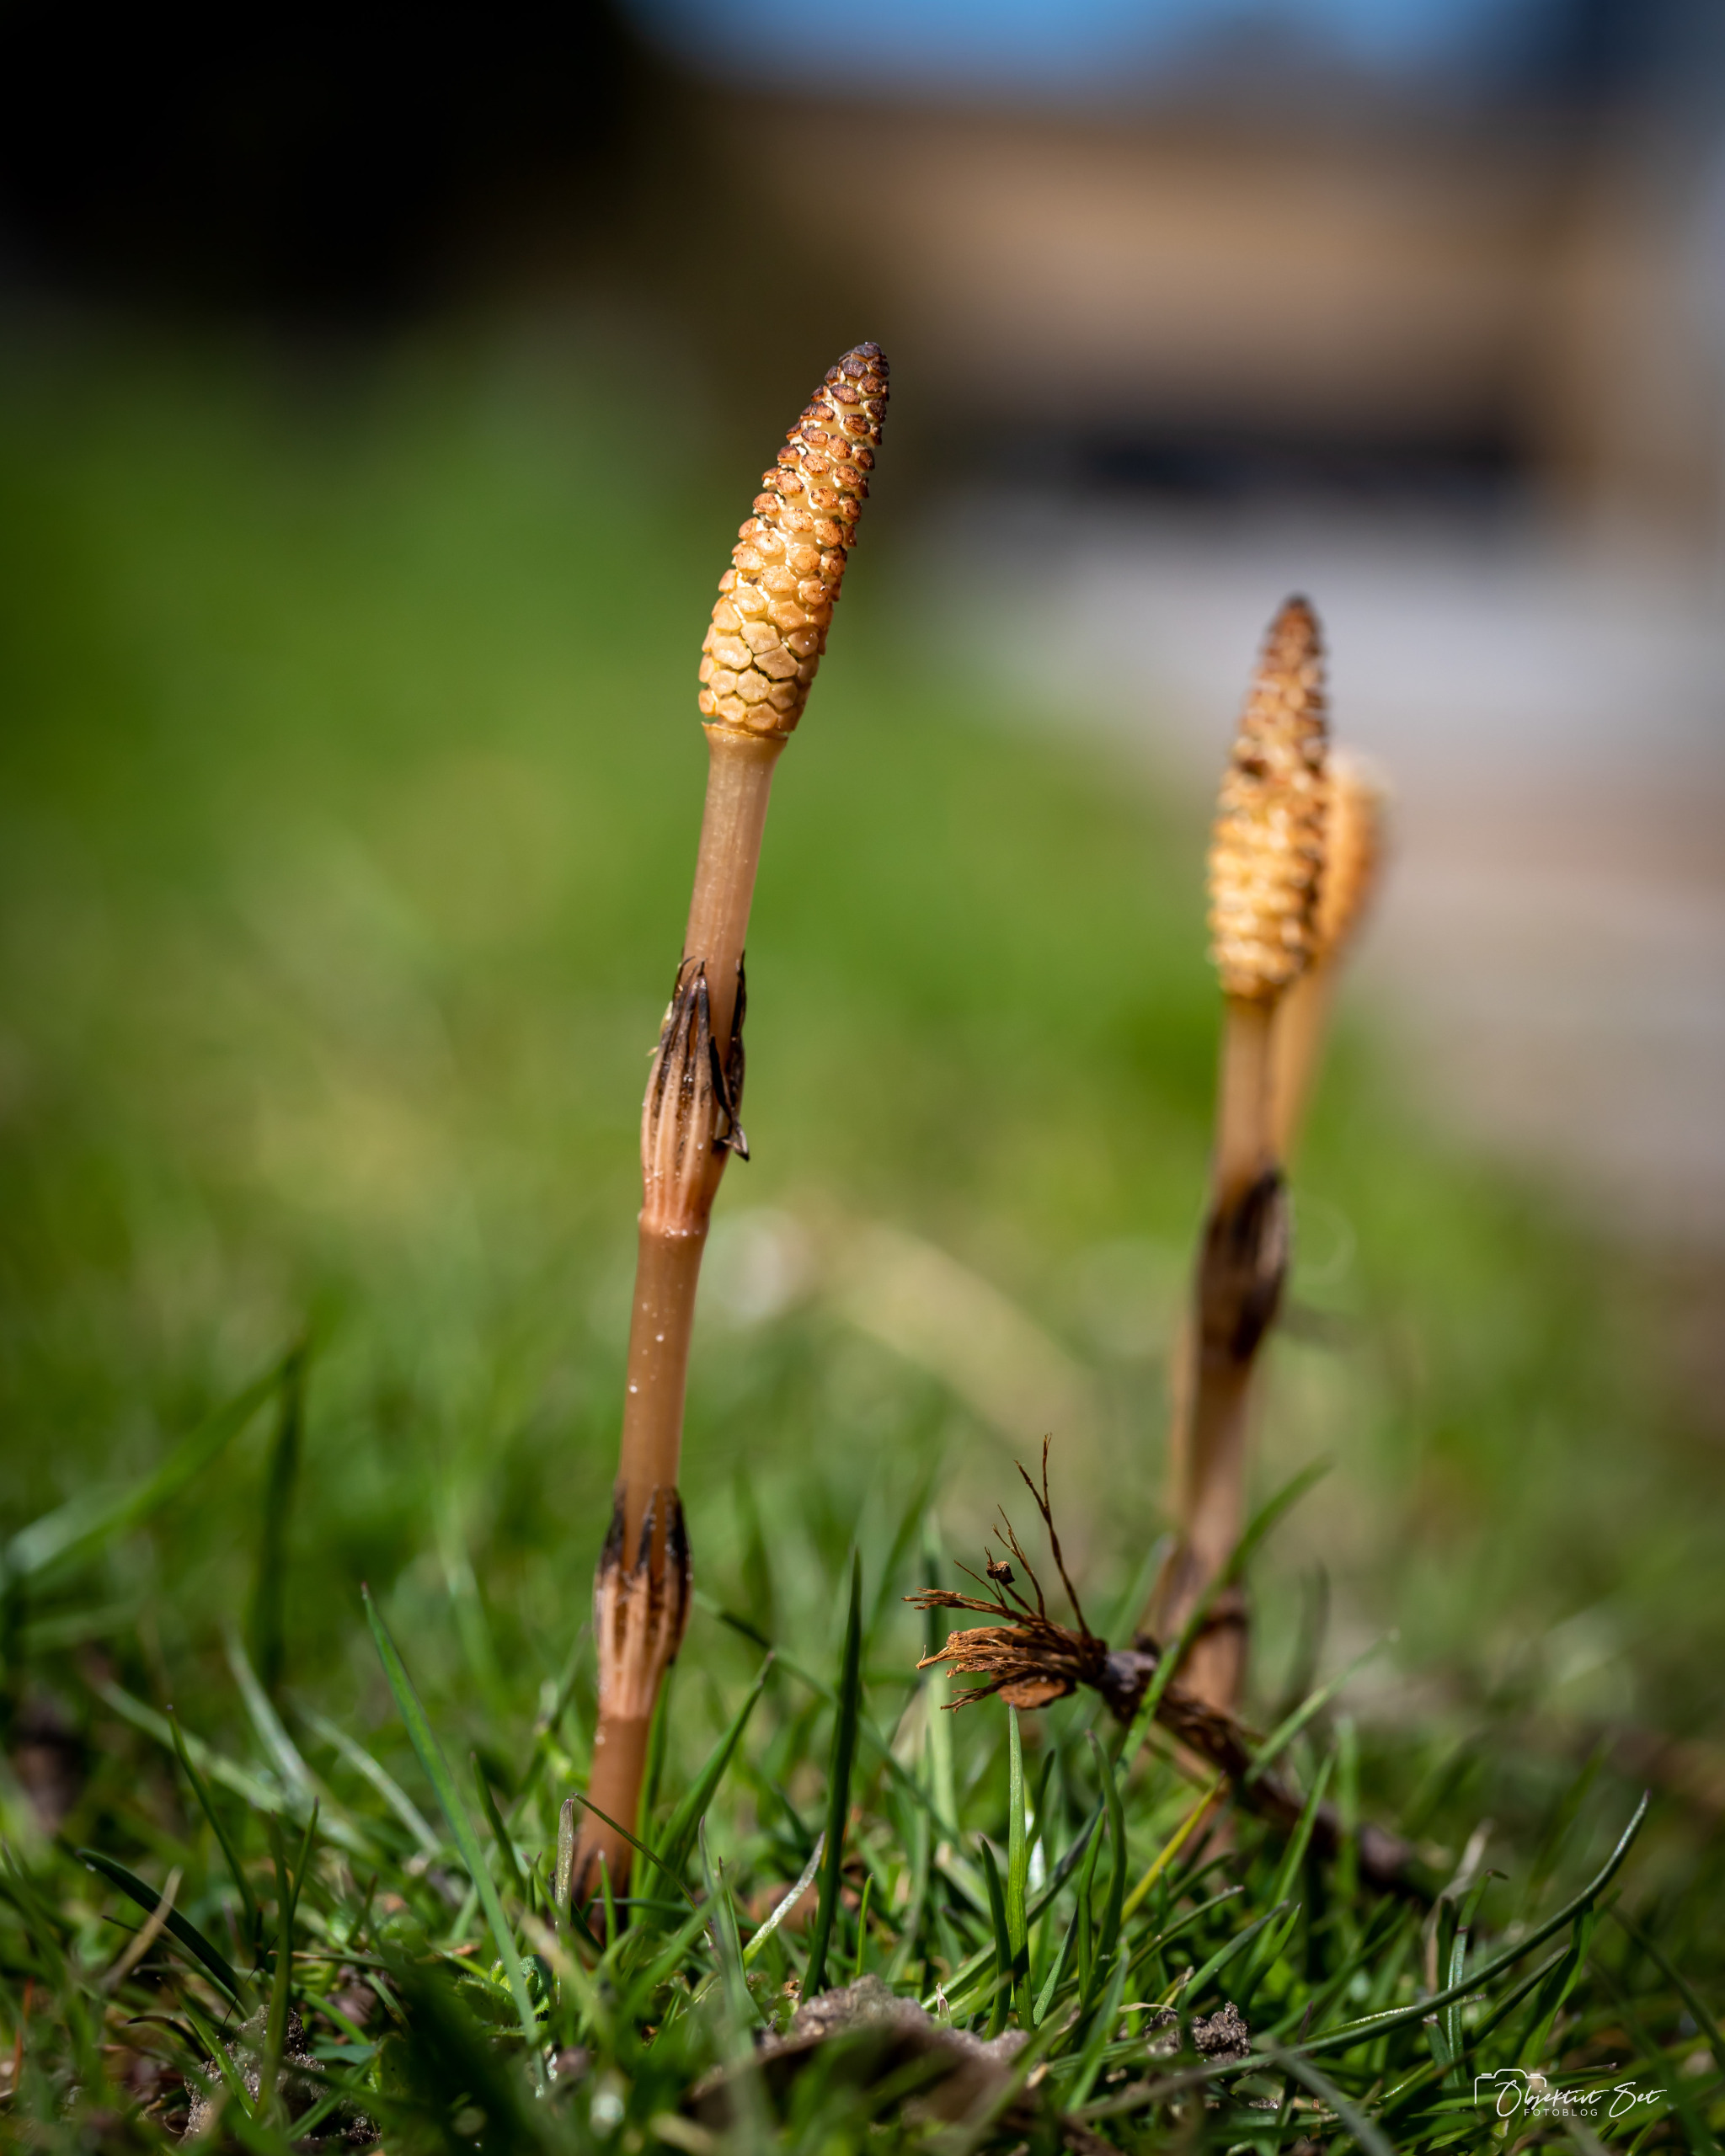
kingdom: Plantae
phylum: Tracheophyta
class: Polypodiopsida
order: Equisetales
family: Equisetaceae
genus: Equisetum
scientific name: Equisetum arvense
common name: Ager-padderok
